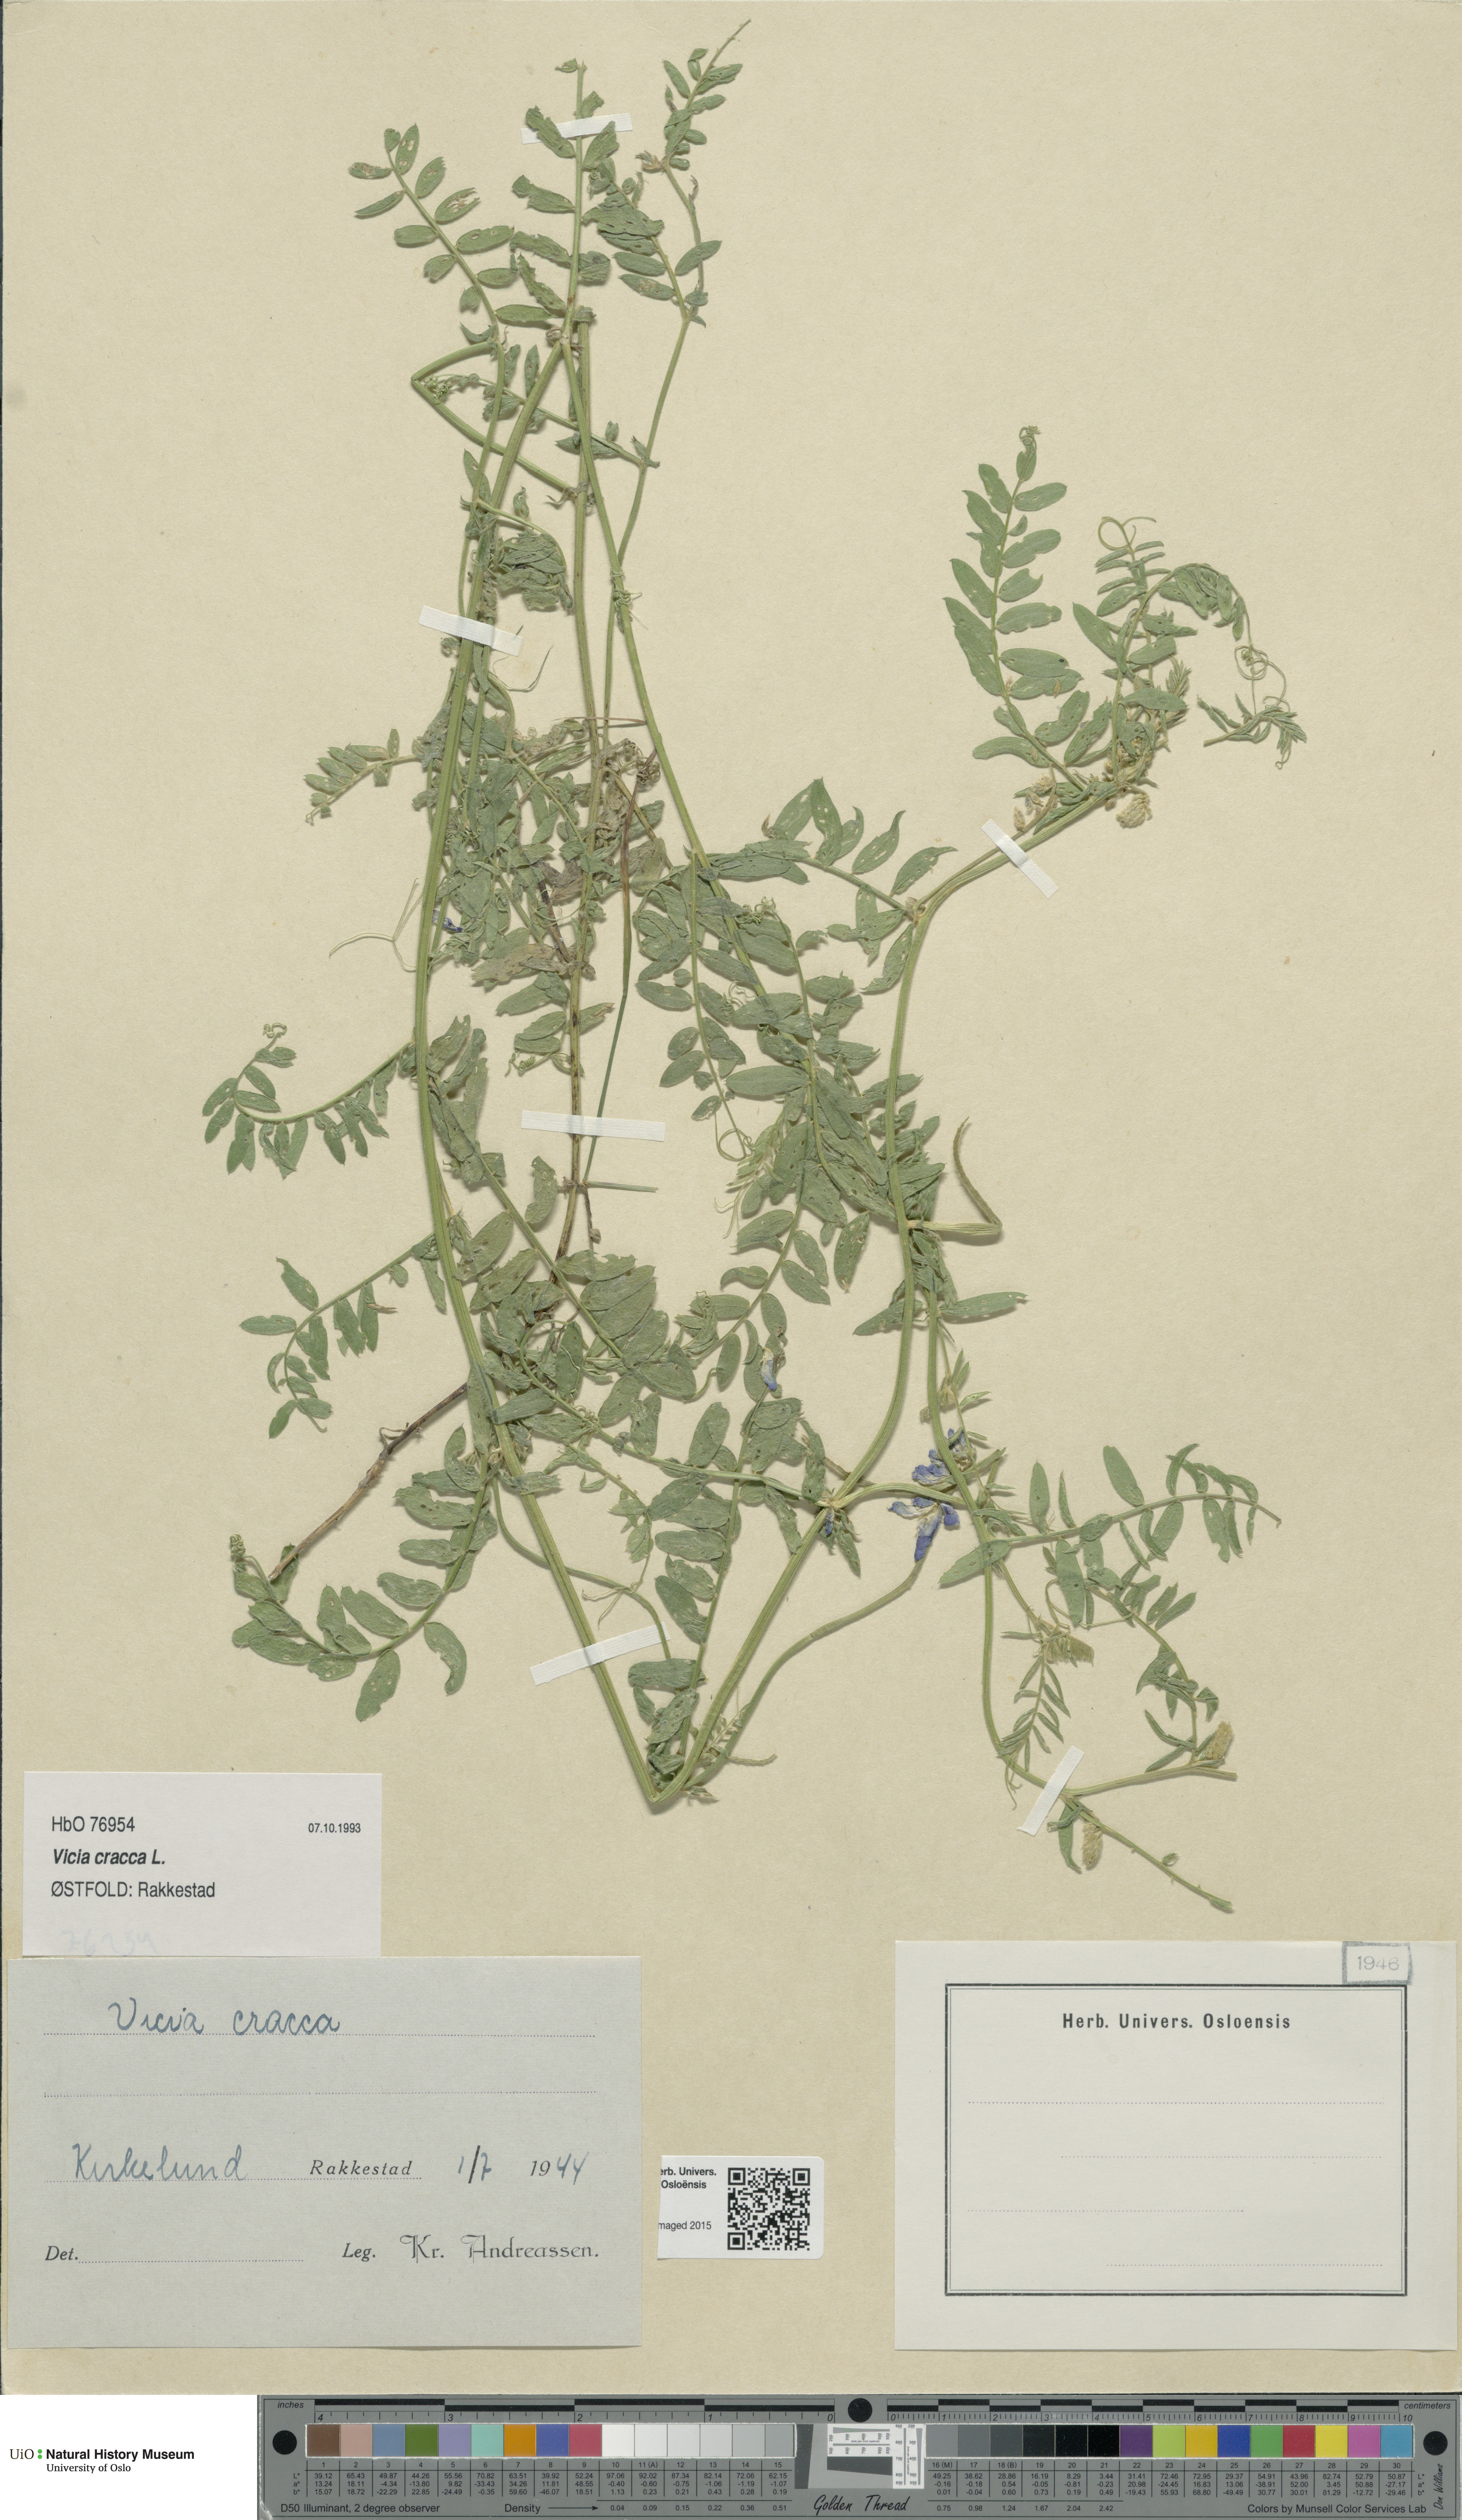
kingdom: Plantae
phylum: Tracheophyta
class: Magnoliopsida
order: Fabales
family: Fabaceae
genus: Vicia
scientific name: Vicia cracca
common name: Bird vetch
